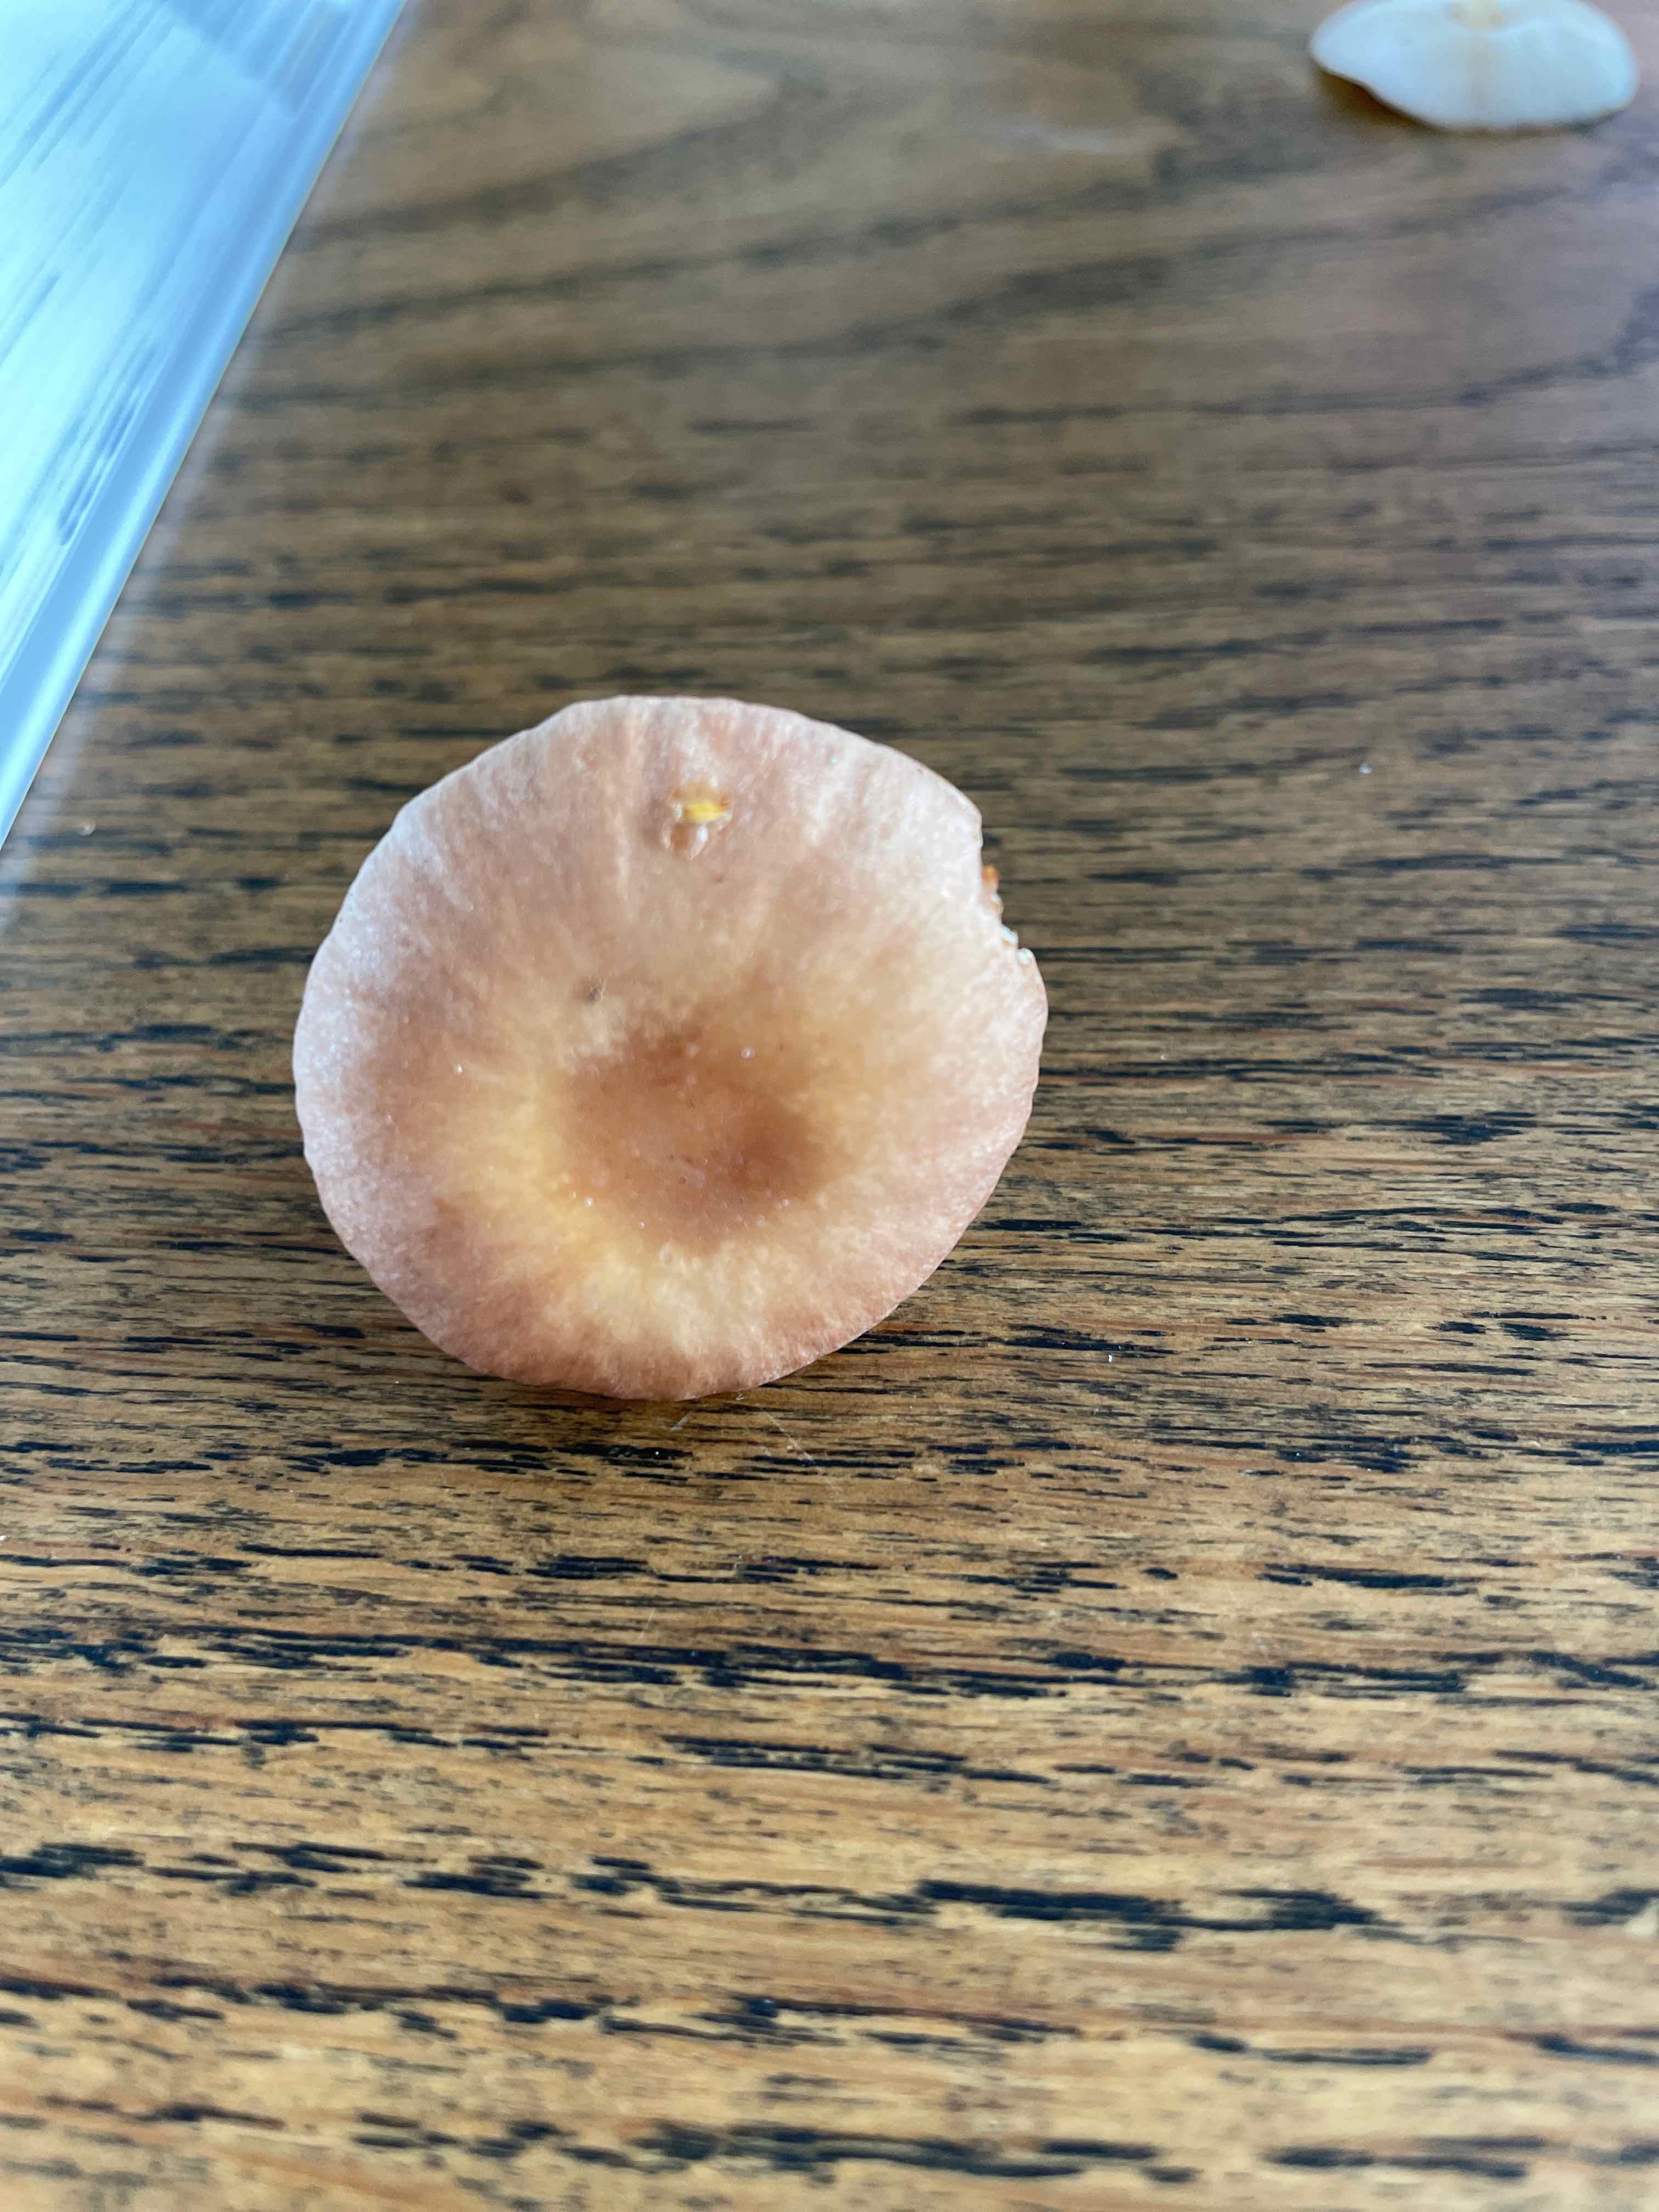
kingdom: Fungi
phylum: Basidiomycota
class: Agaricomycetes
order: Agaricales
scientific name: Agaricales
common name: champignonordenen
